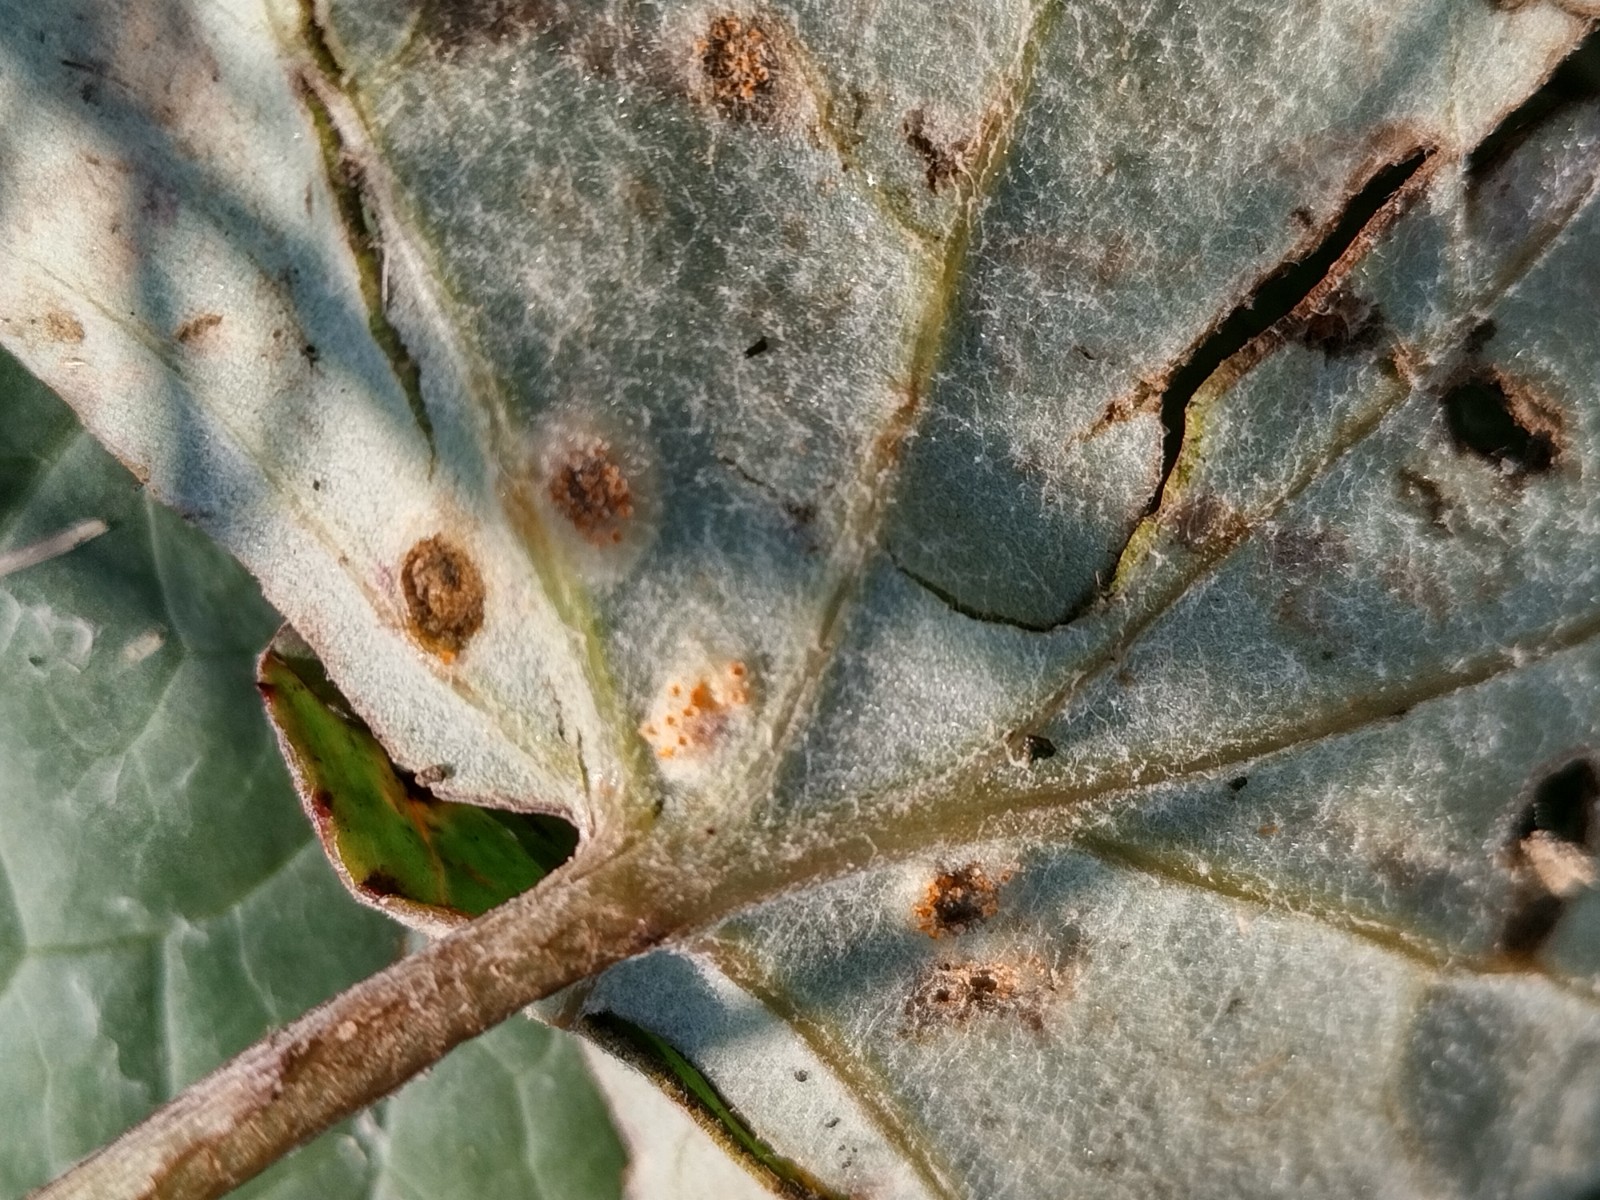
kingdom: Fungi
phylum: Basidiomycota
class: Pucciniomycetes
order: Pucciniales
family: Pucciniaceae
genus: Puccinia
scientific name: Puccinia poarum
